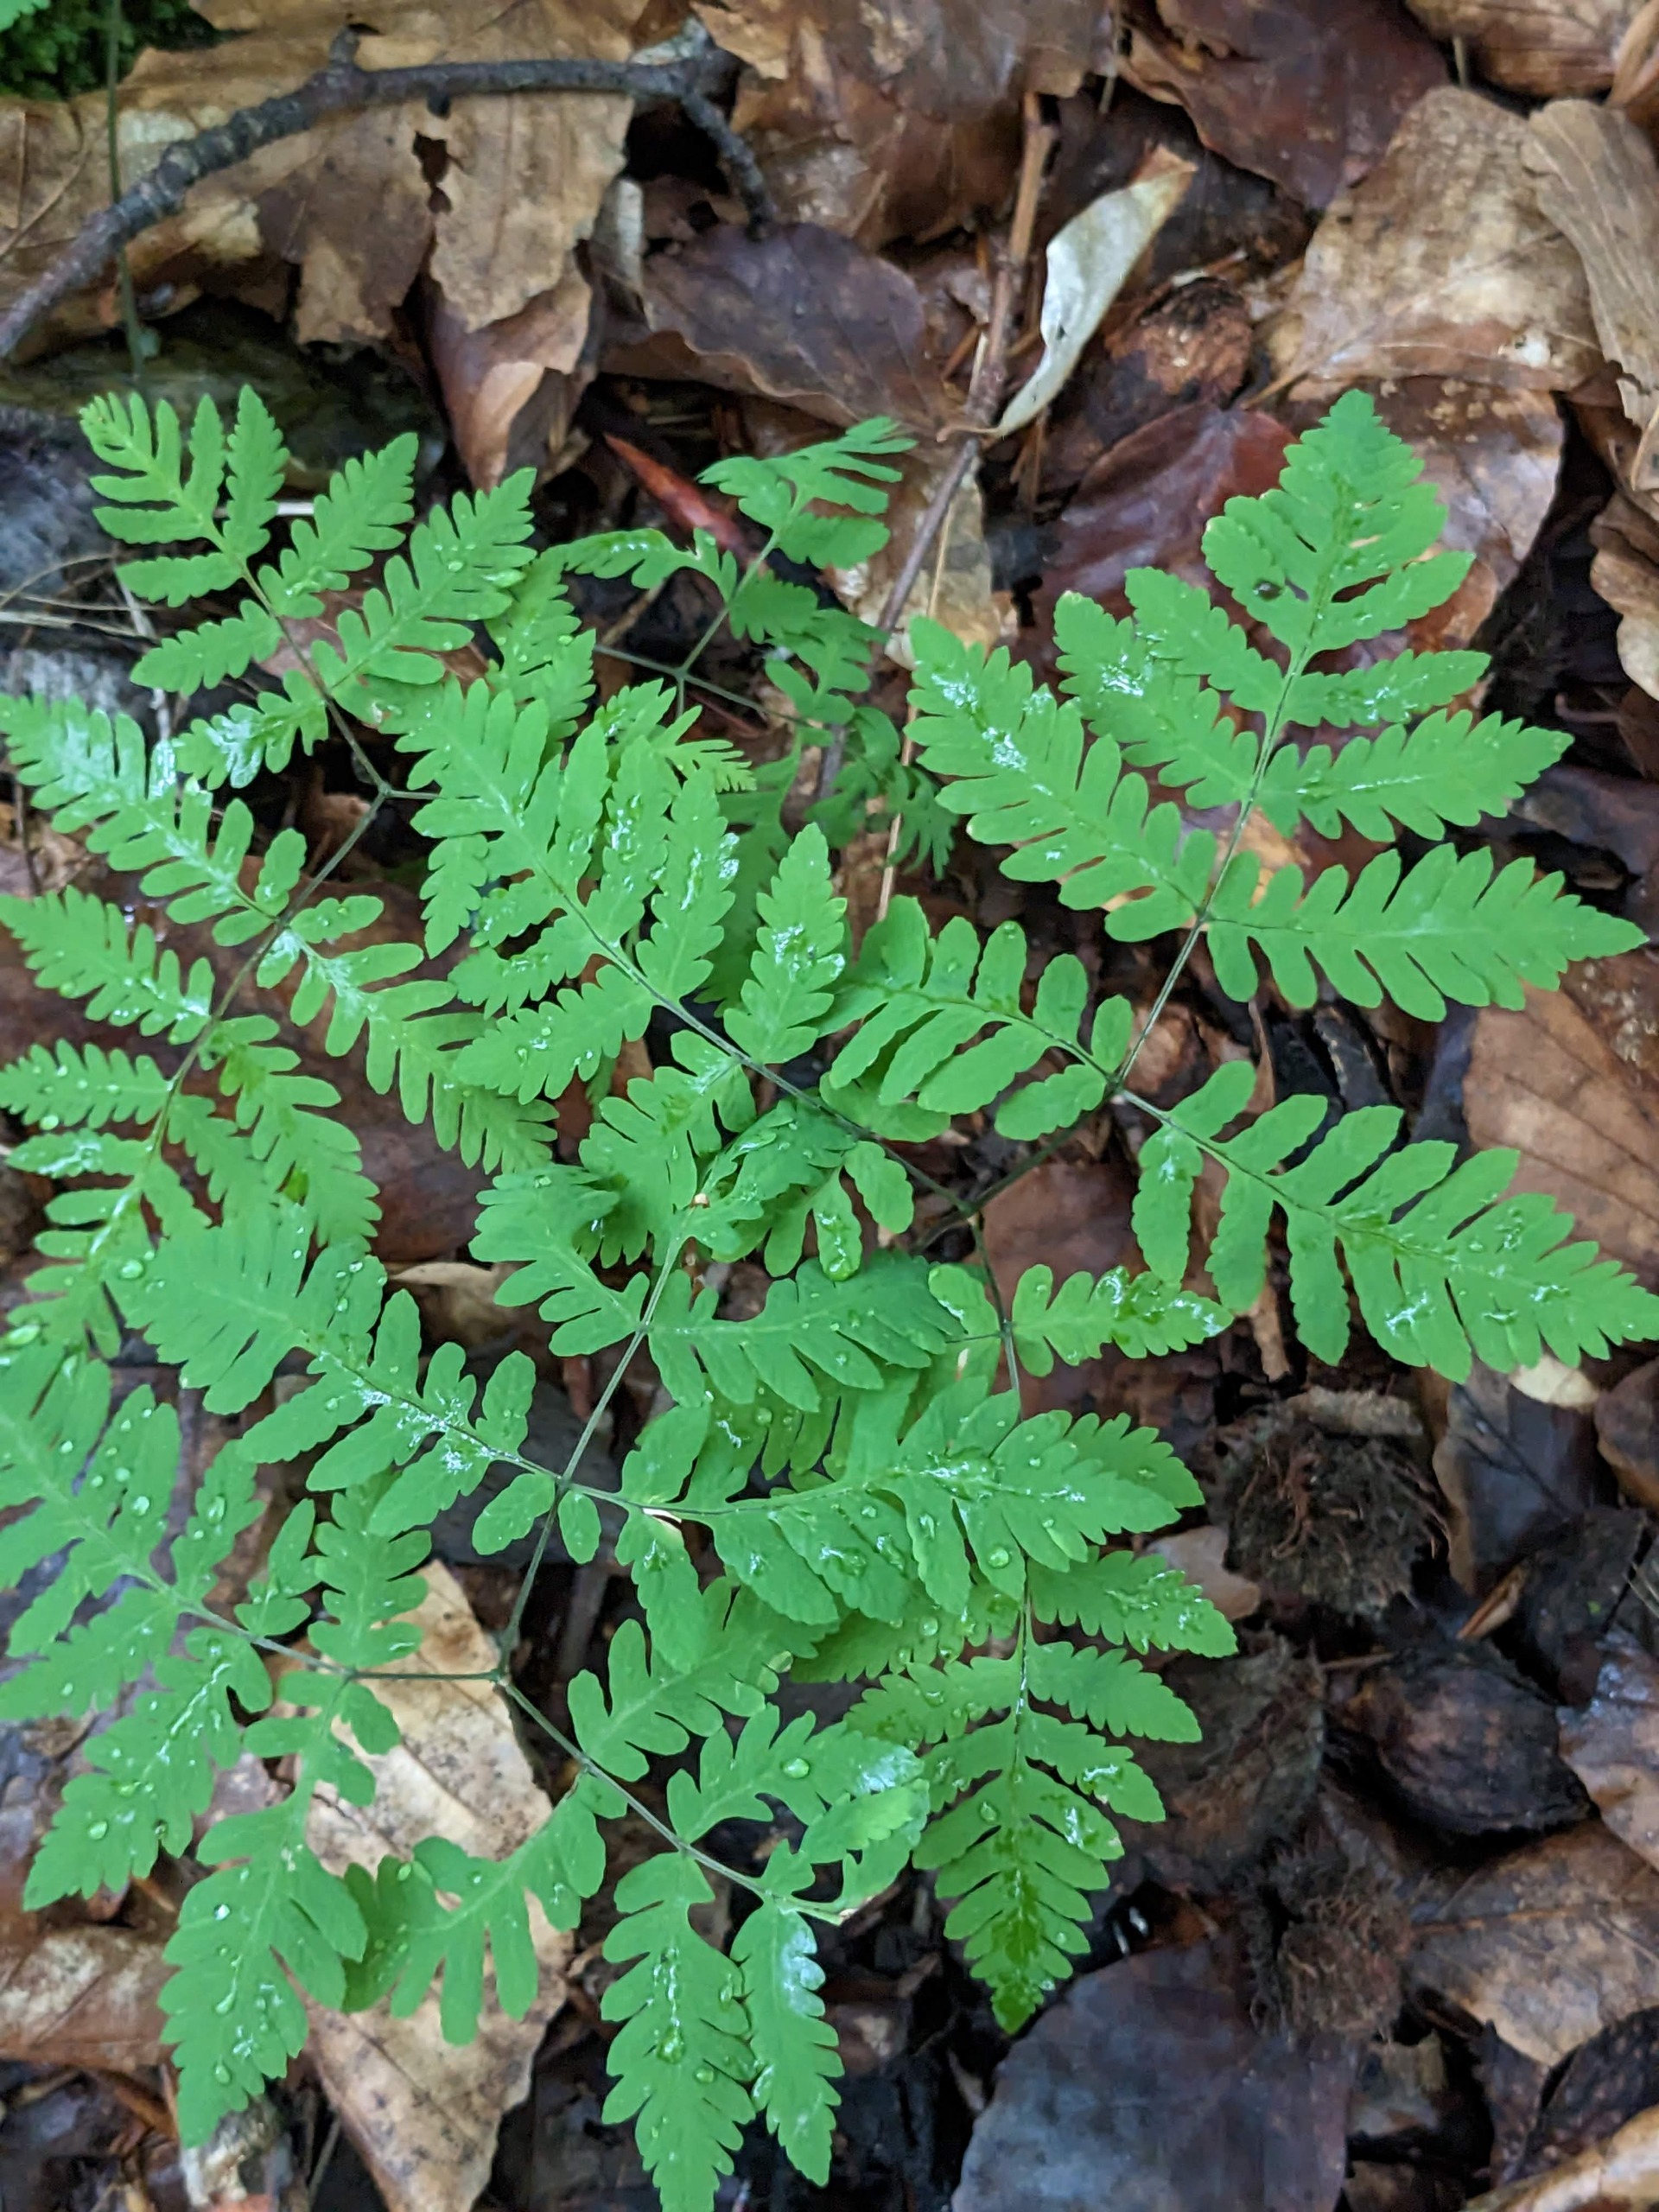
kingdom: Plantae
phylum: Tracheophyta
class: Polypodiopsida
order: Polypodiales
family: Cystopteridaceae
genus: Gymnocarpium
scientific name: Gymnocarpium dryopteris
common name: Tredelt egebregne
